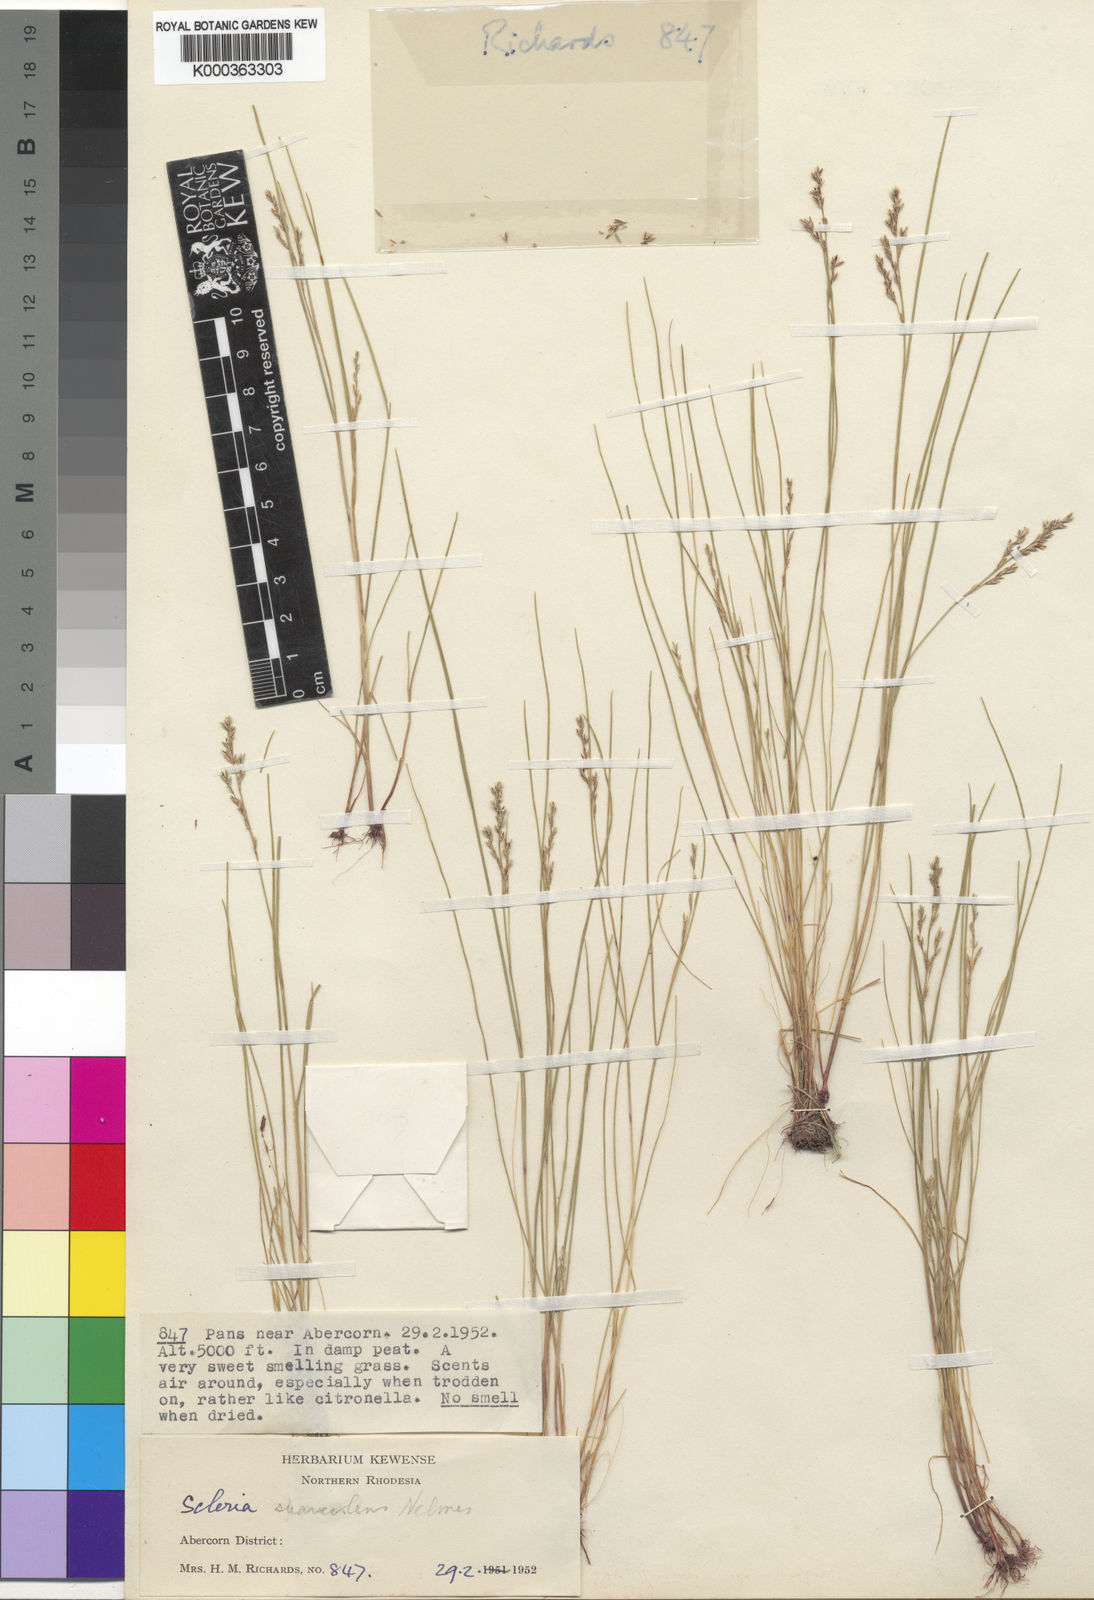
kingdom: Plantae
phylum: Tracheophyta
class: Liliopsida
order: Poales
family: Cyperaceae
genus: Scleria
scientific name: Scleria pulchella
